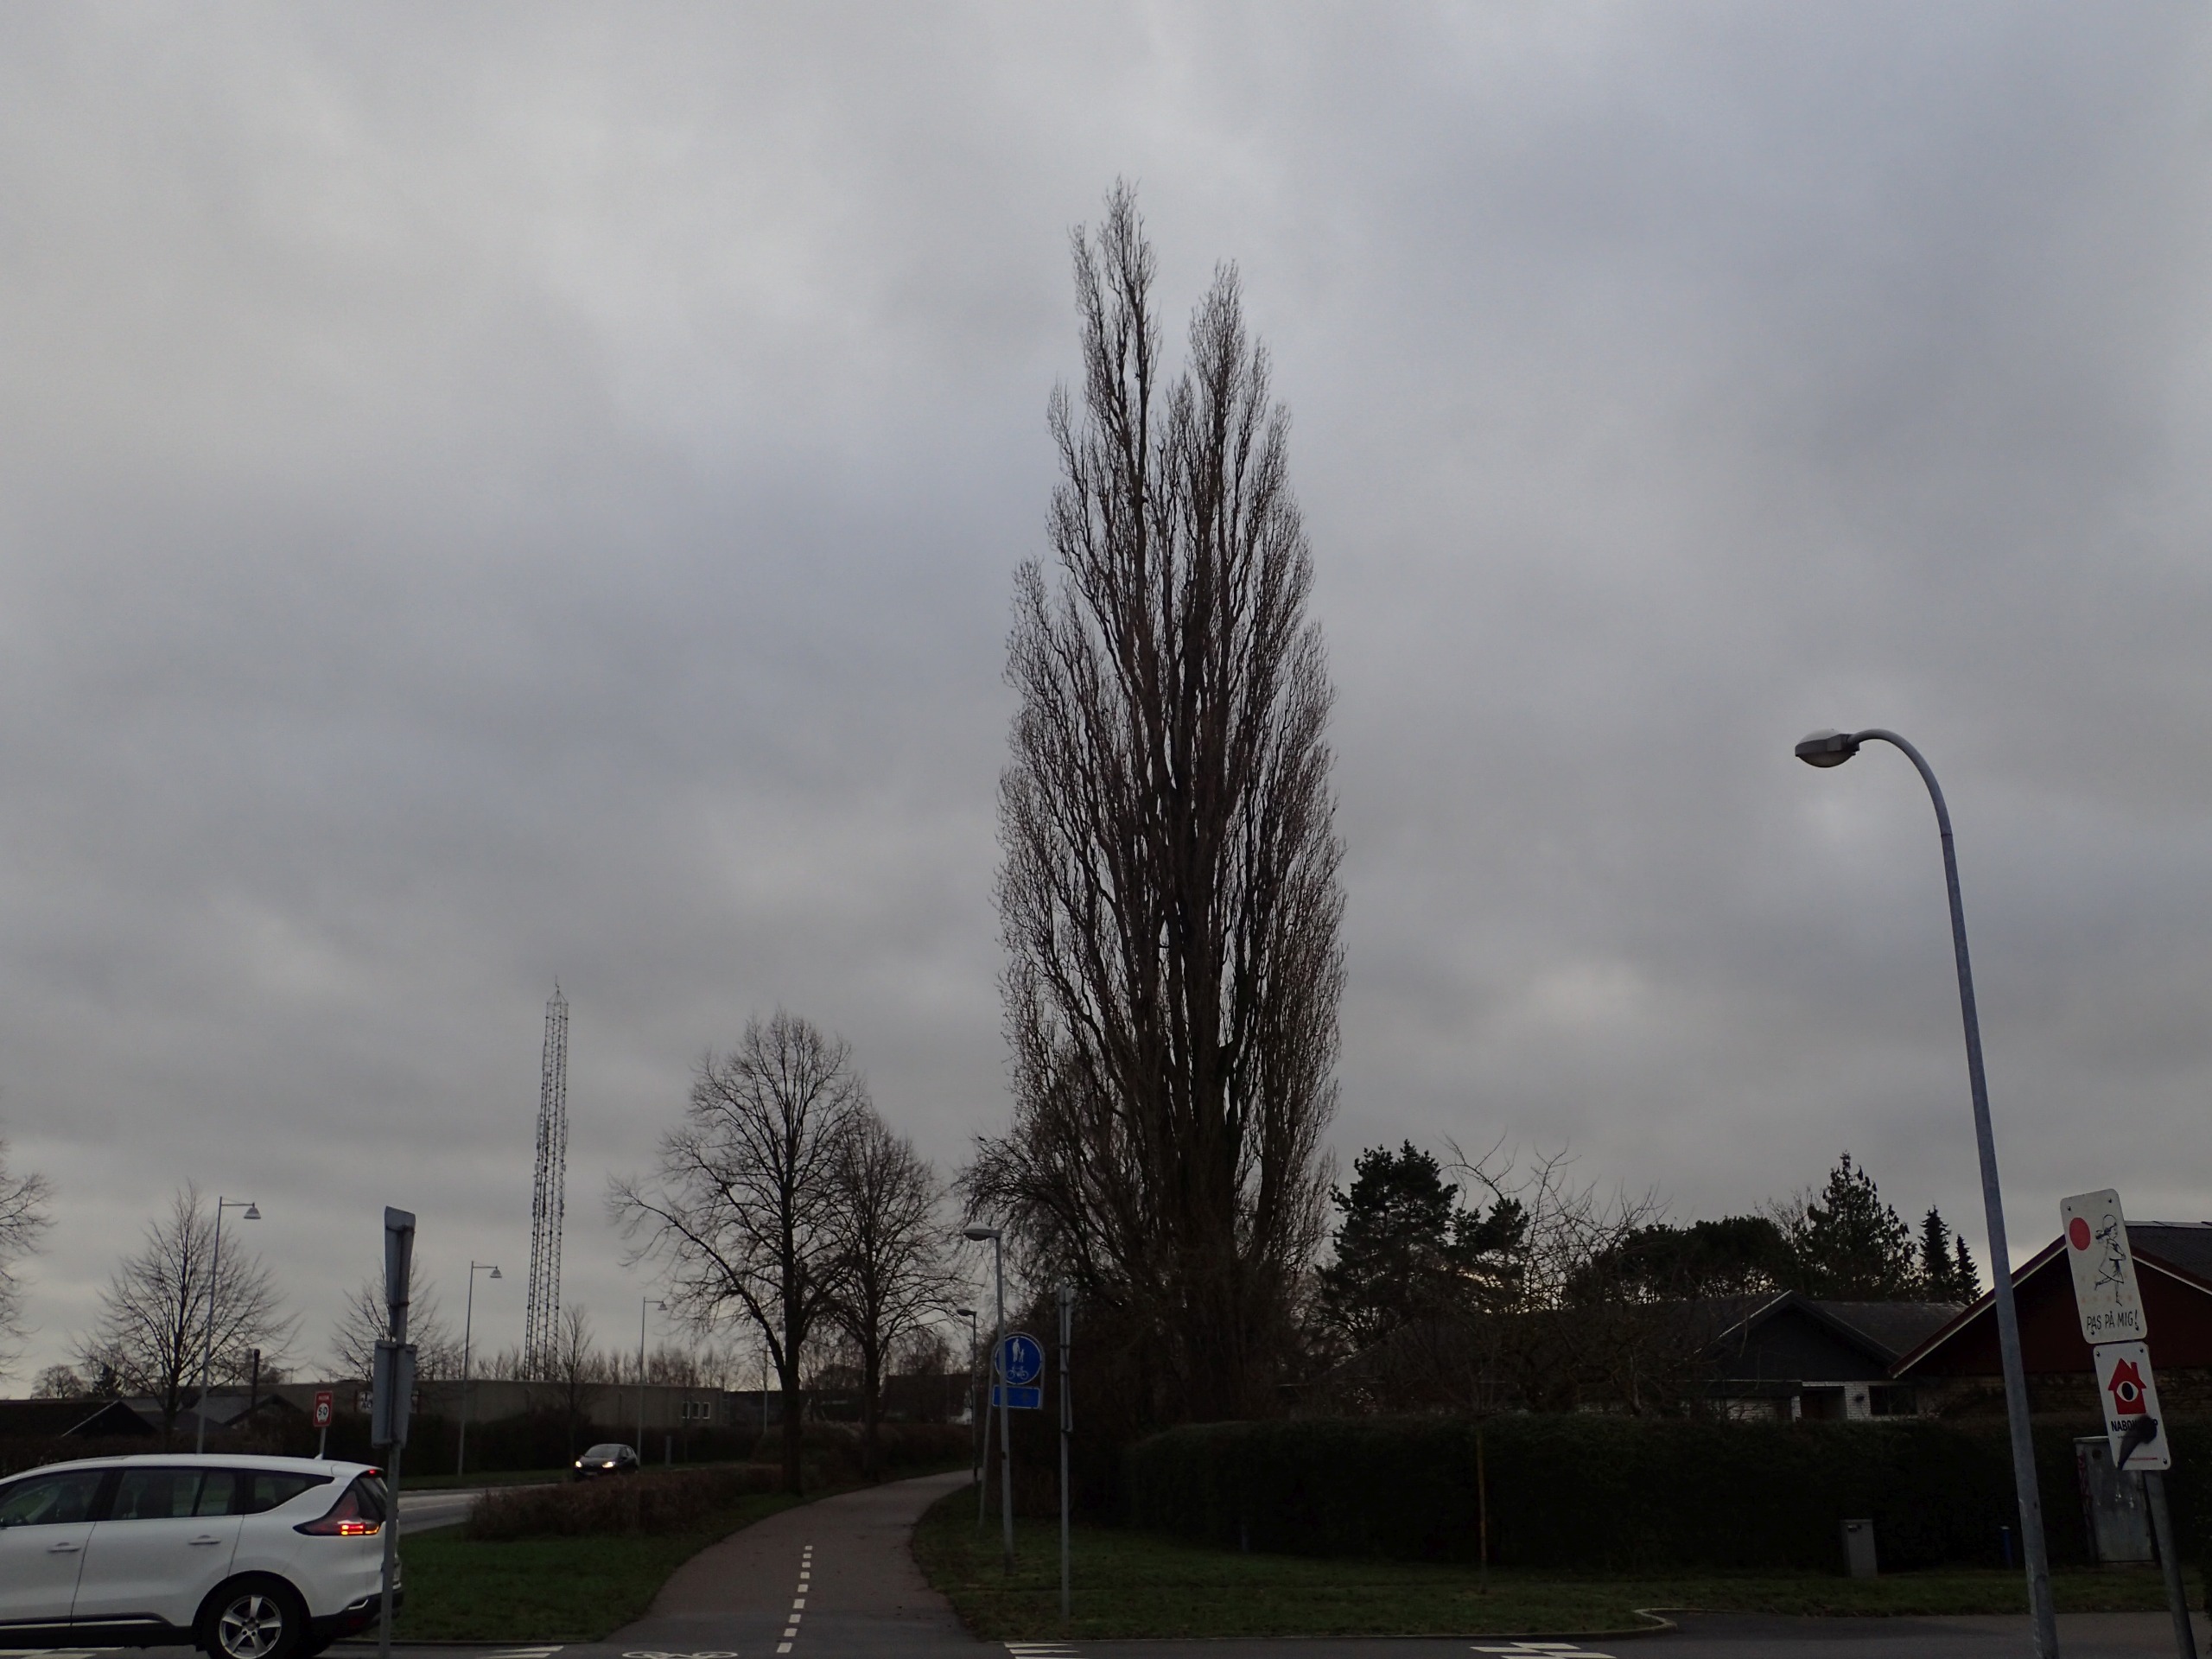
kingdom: Plantae
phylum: Tracheophyta
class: Magnoliopsida
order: Malpighiales
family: Salicaceae
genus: Populus
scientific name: Populus nigra
